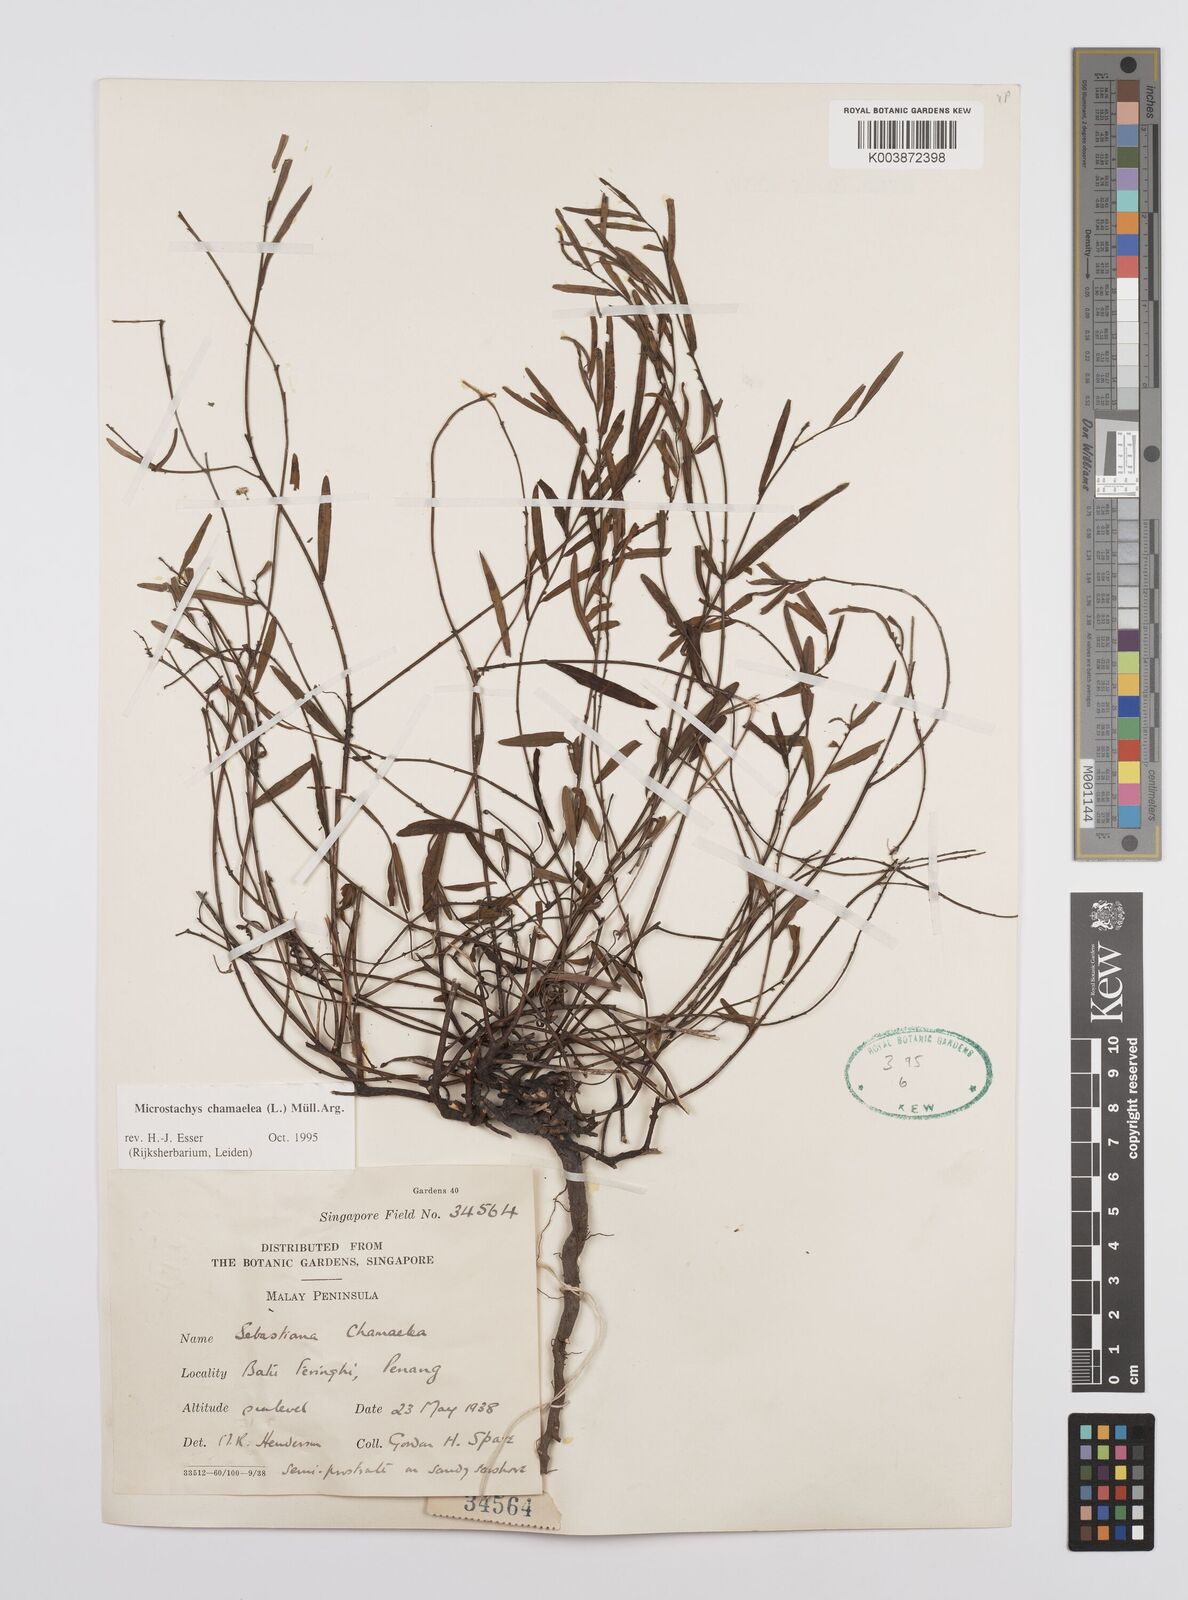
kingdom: Plantae
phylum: Tracheophyta
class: Magnoliopsida
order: Malpighiales
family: Euphorbiaceae
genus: Microstachys
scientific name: Microstachys chamaelea
